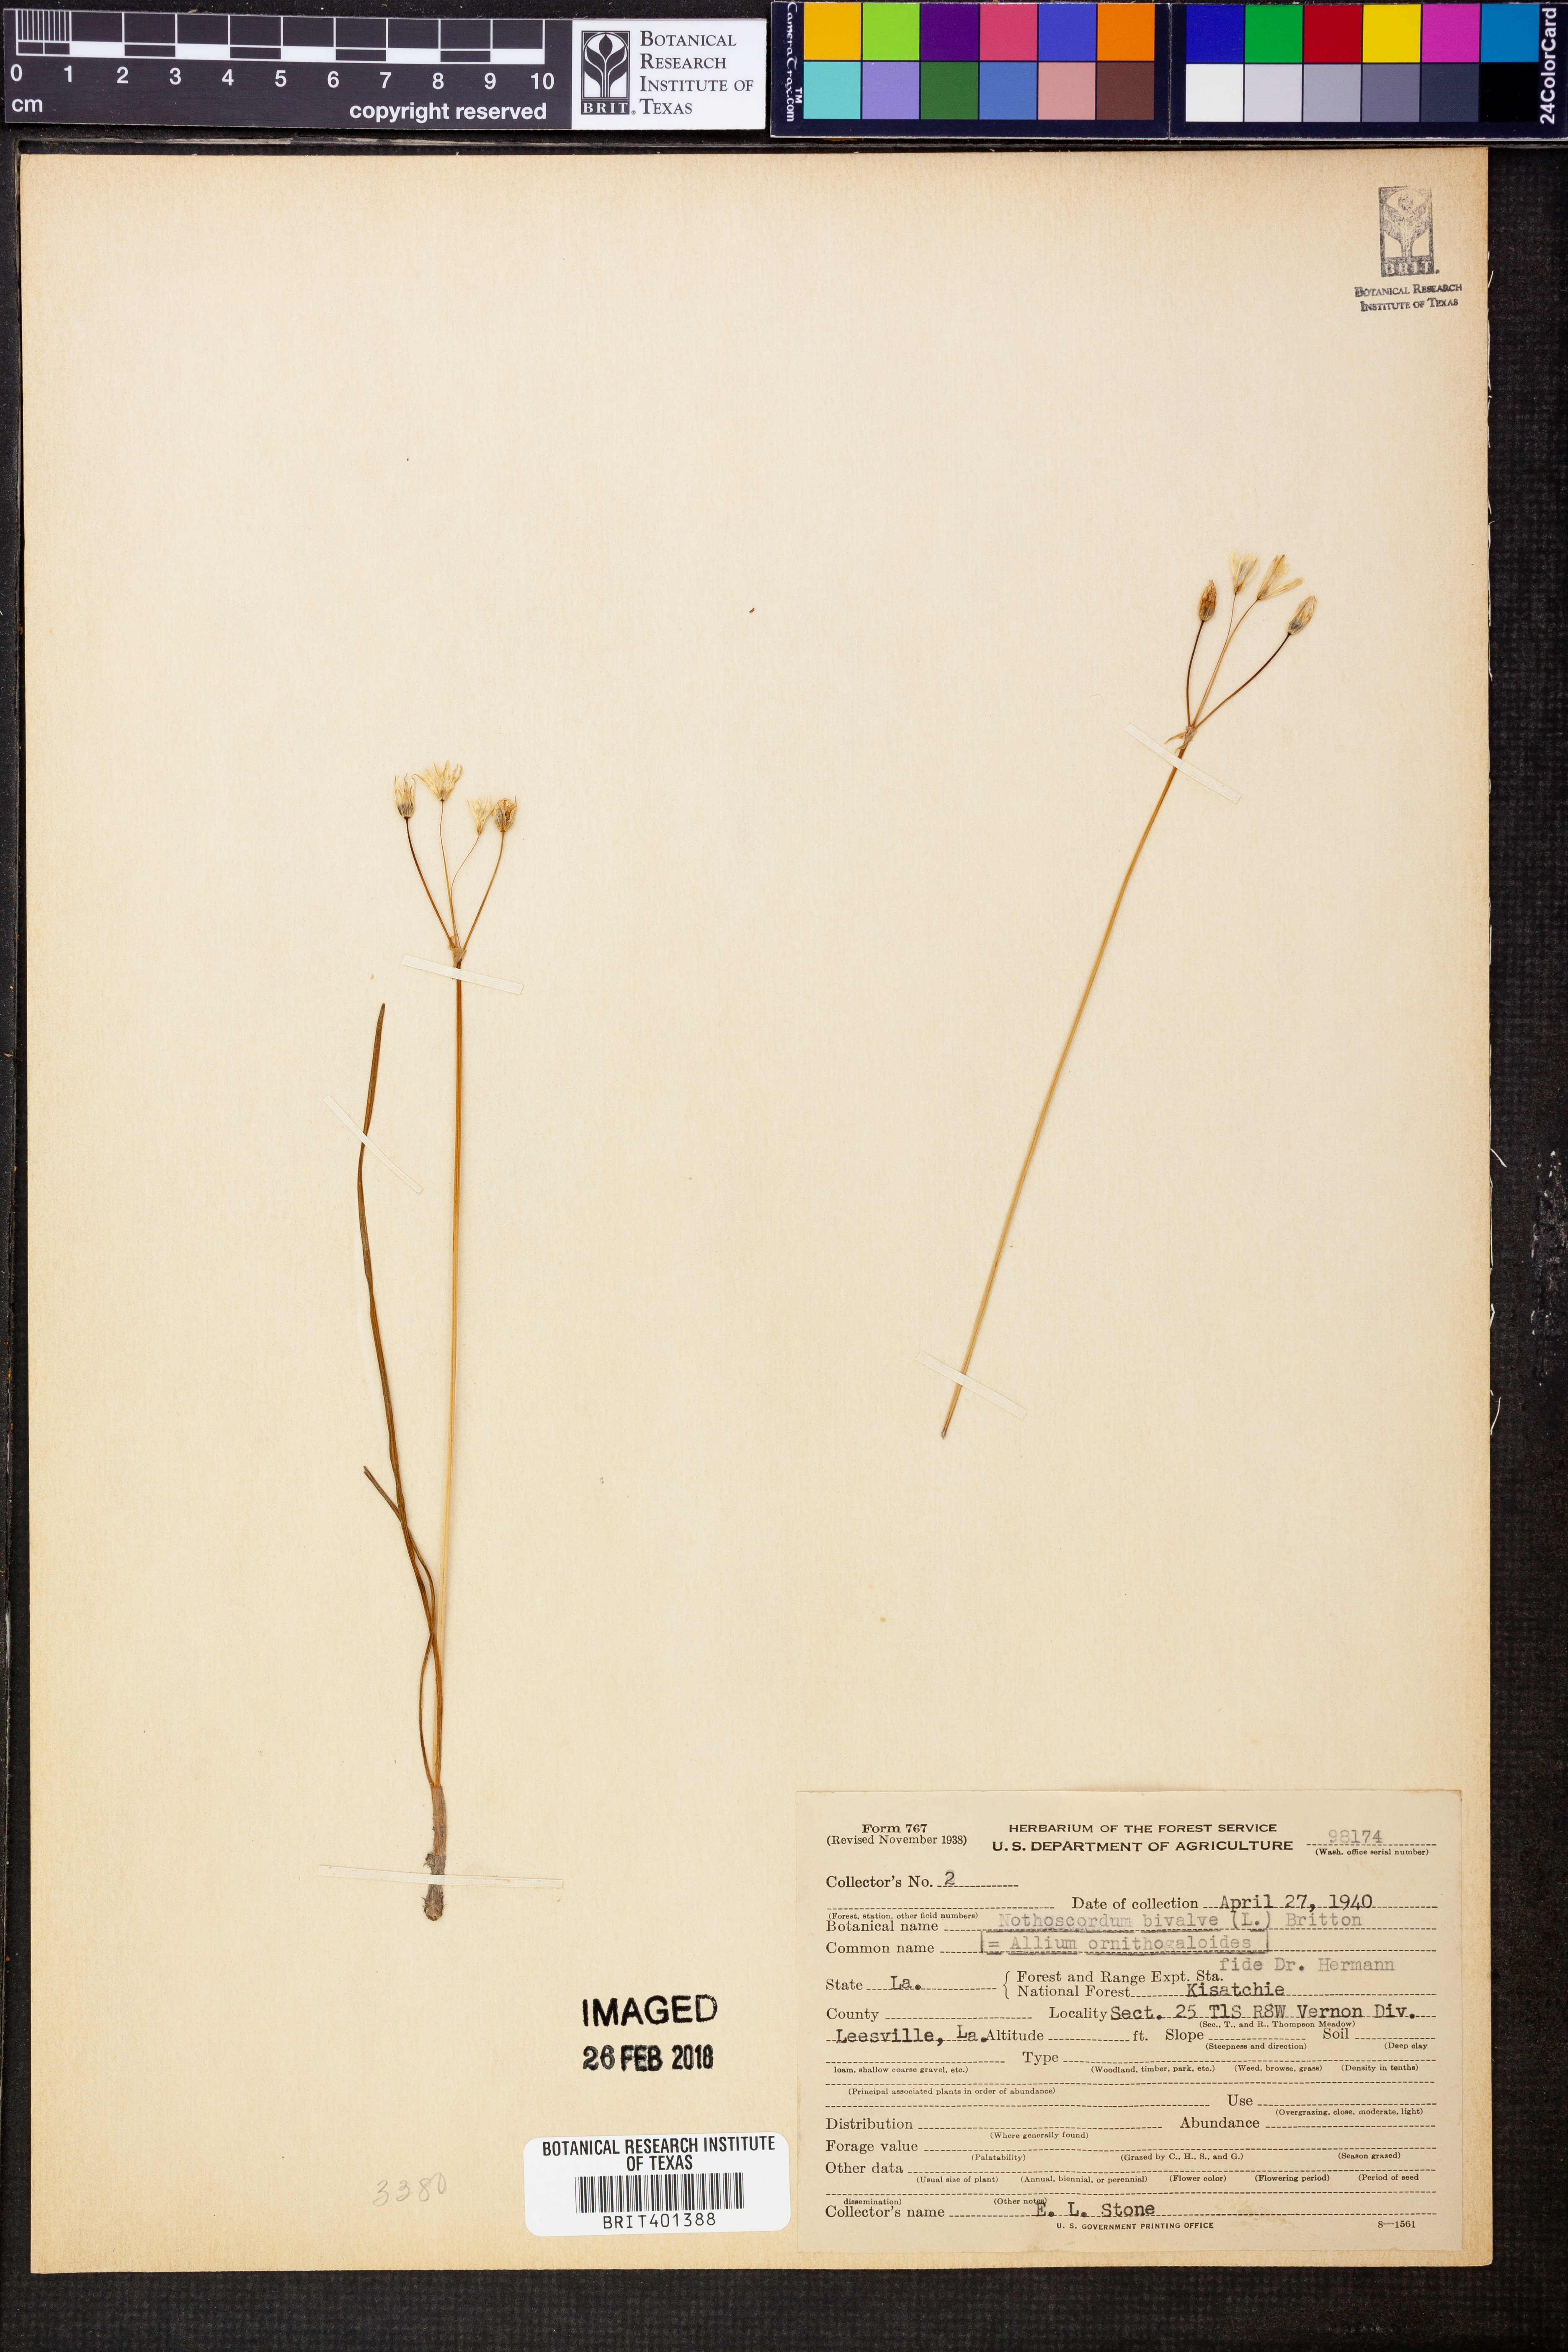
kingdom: Plantae
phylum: Tracheophyta
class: Liliopsida
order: Asparagales
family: Amaryllidaceae
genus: Nothoscordum
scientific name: Nothoscordum bivalve
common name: Crow-poison
